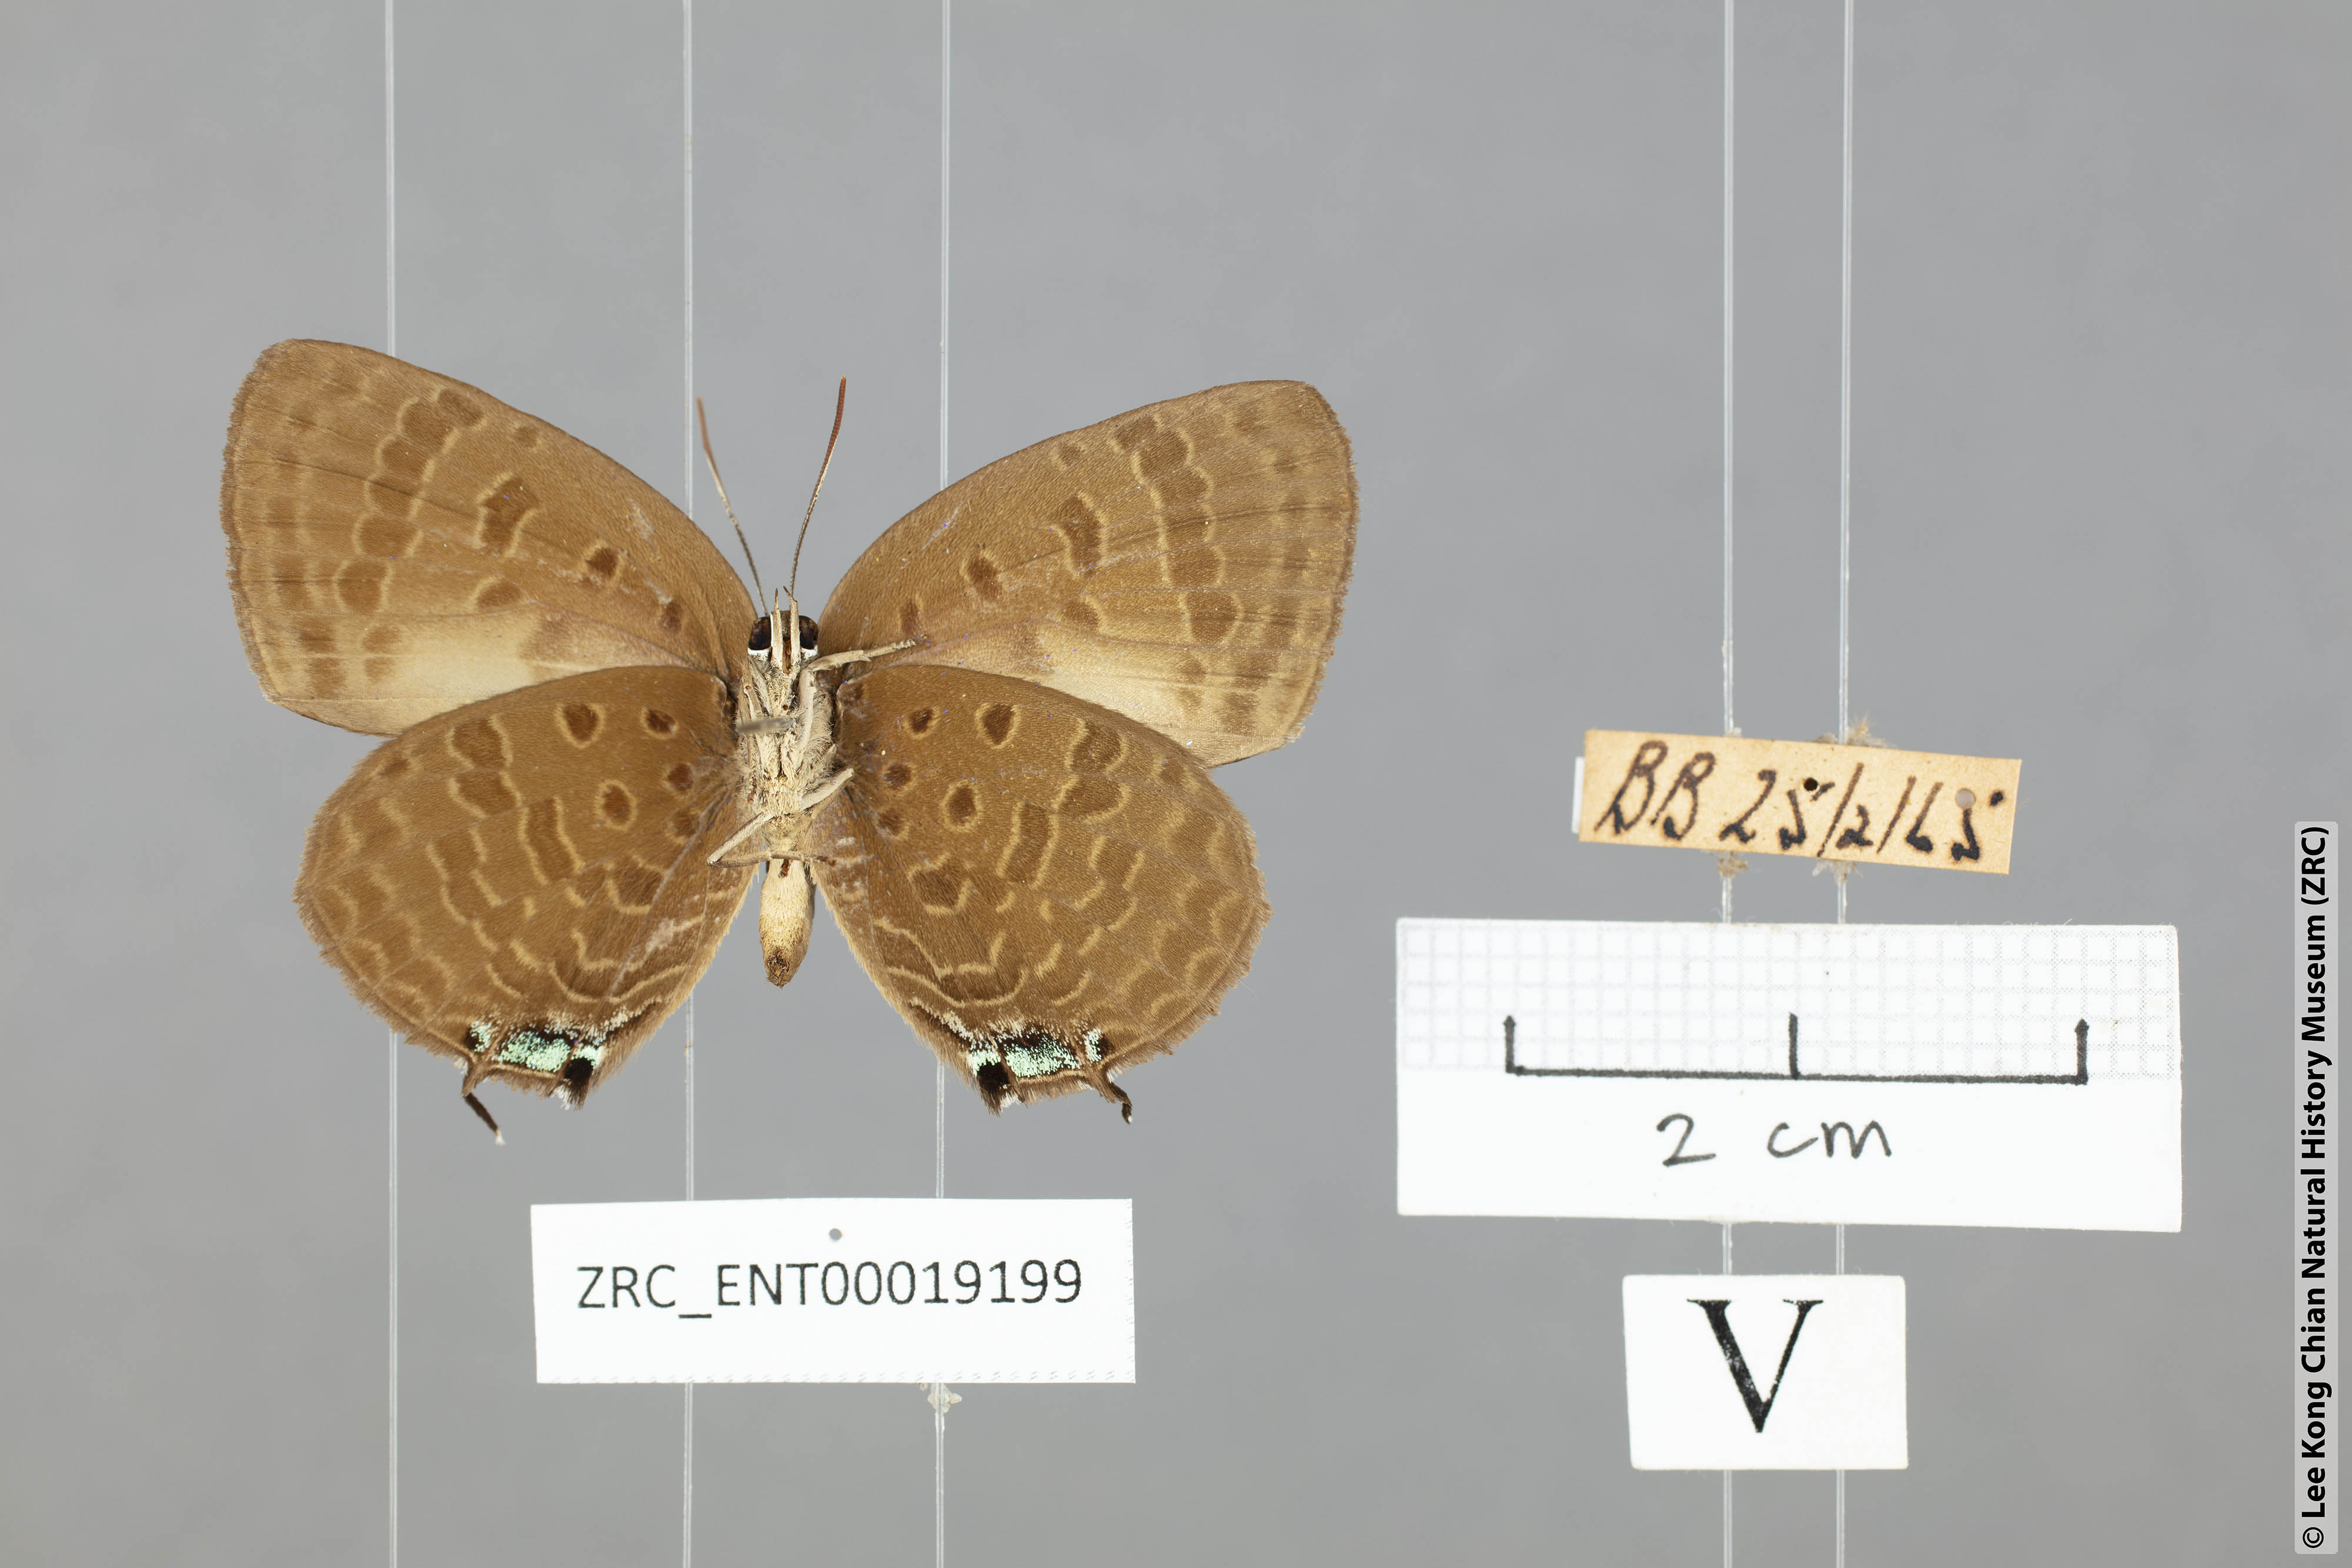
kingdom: Animalia
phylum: Arthropoda
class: Insecta
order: Lepidoptera
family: Lycaenidae
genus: Arhopala
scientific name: Arhopala aroa
